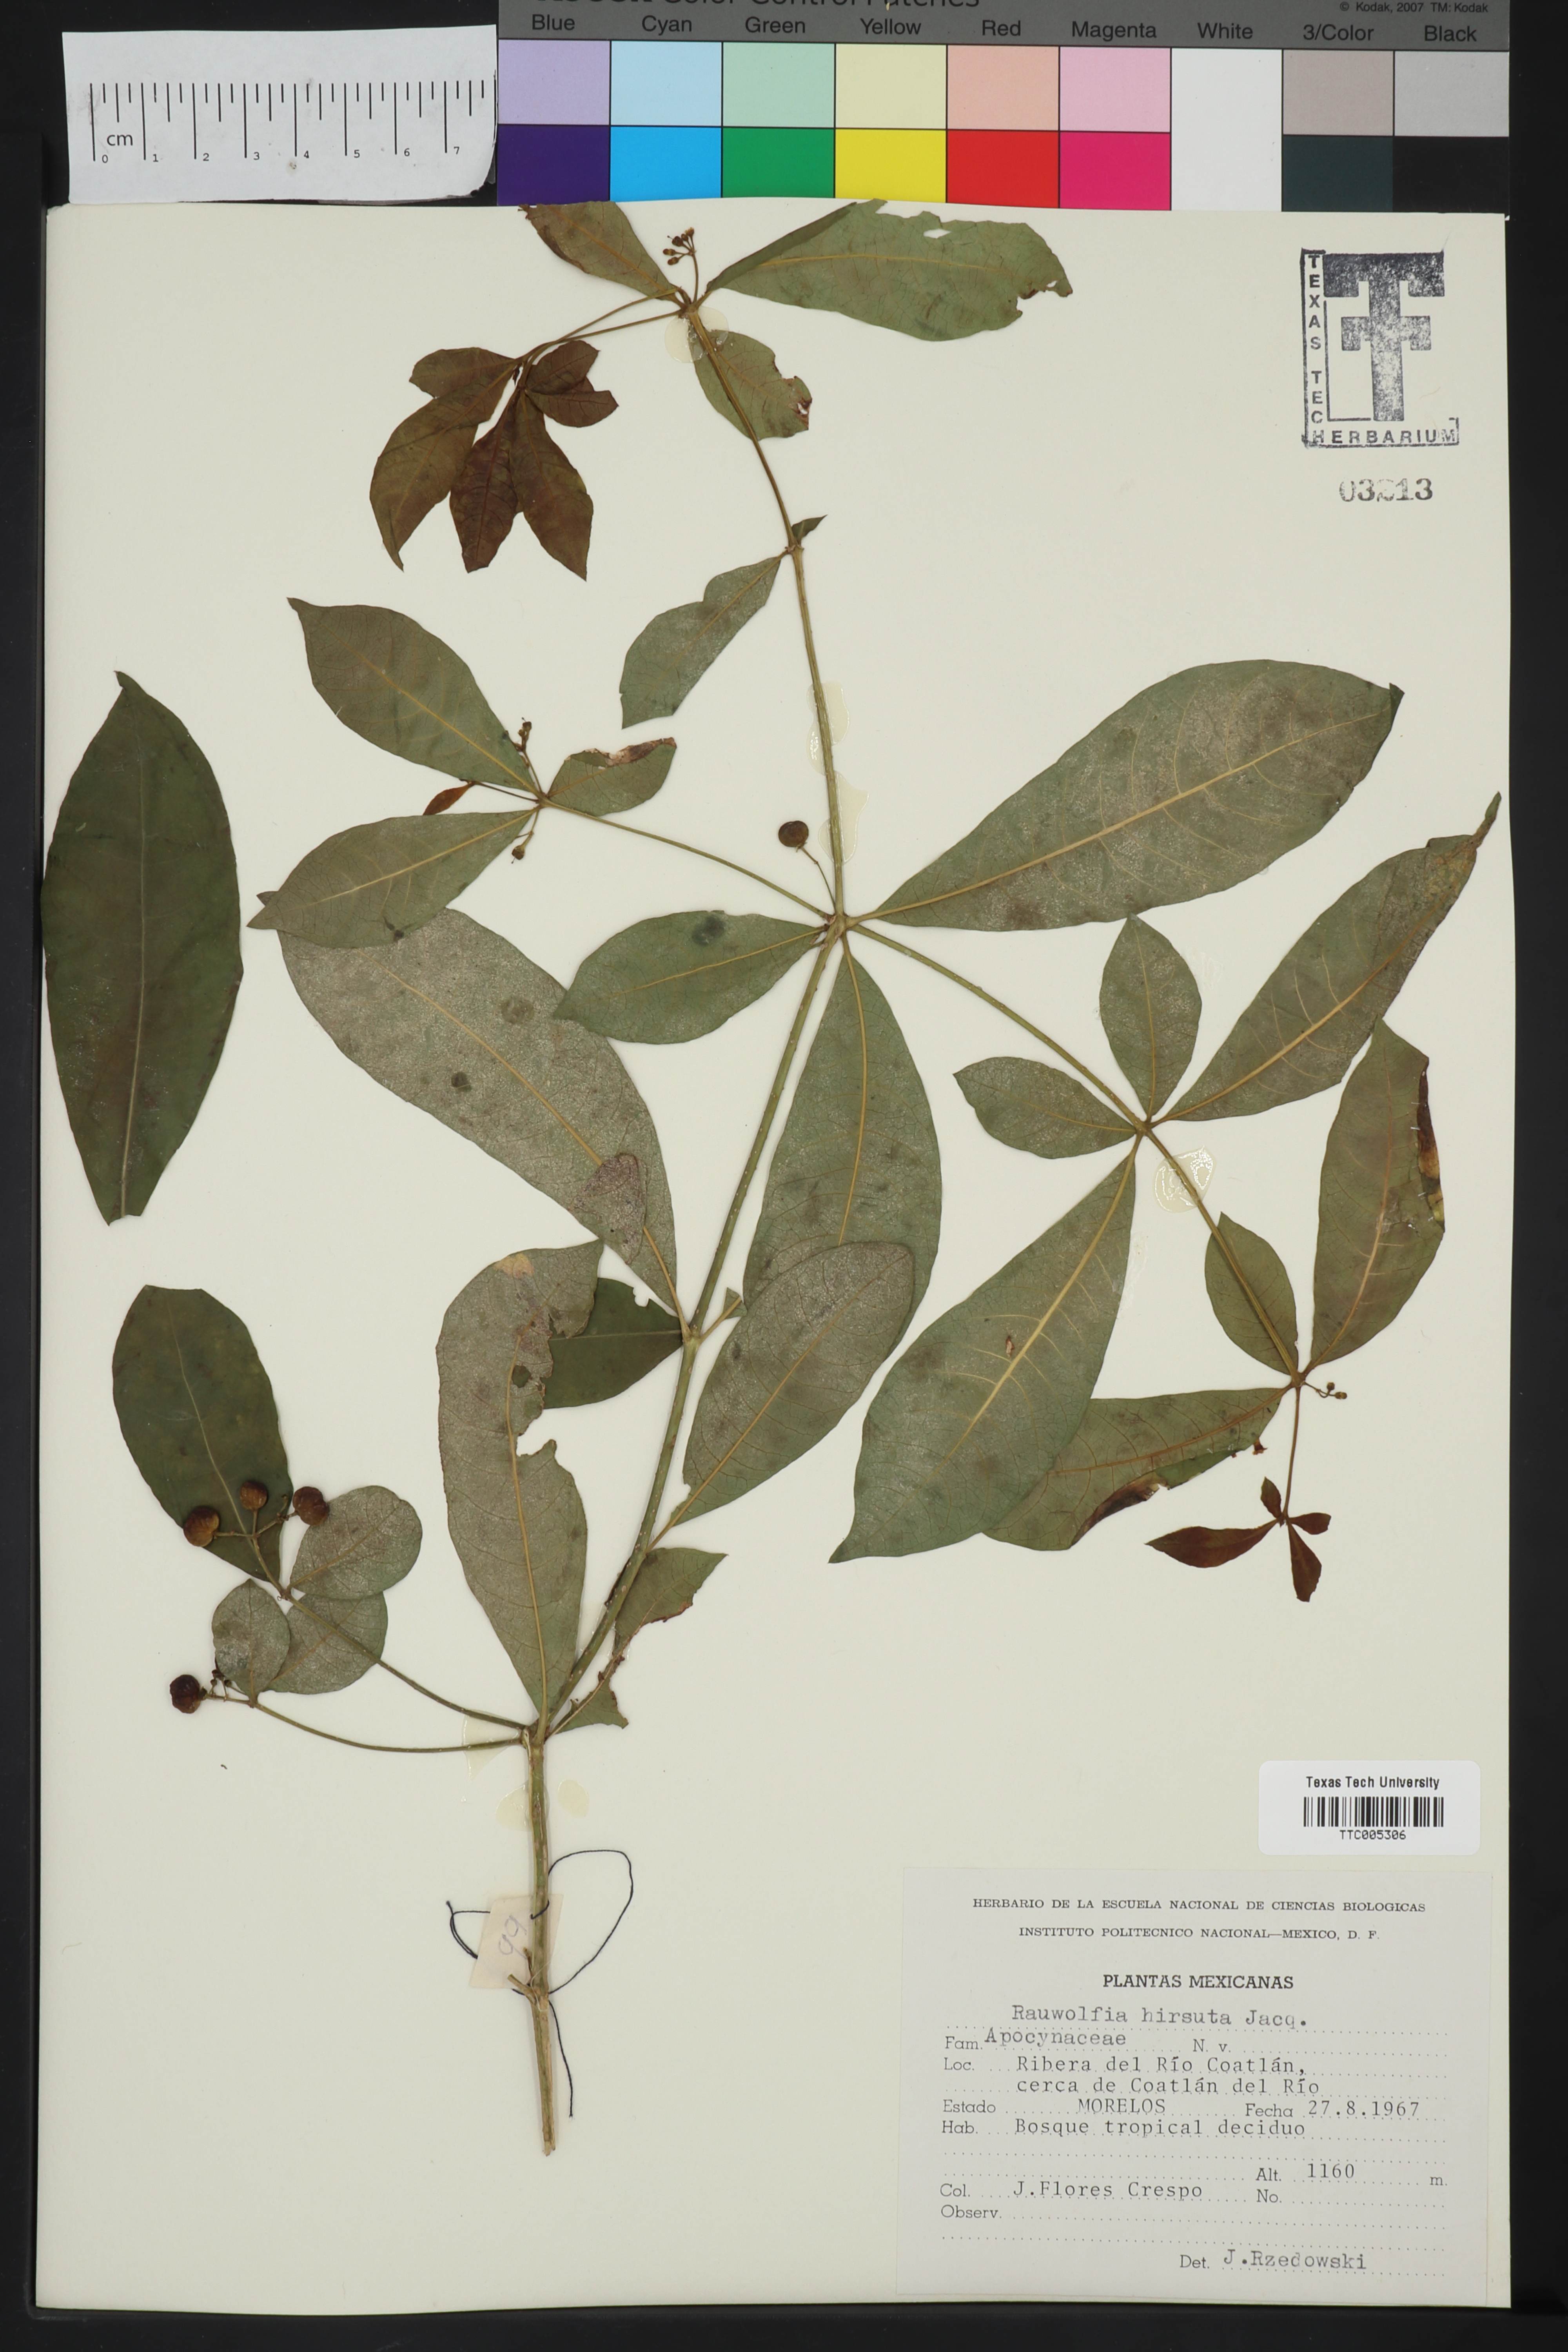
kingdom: Plantae
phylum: Tracheophyta
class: Magnoliopsida
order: Gentianales
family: Apocynaceae
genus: Rauvolfia
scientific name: Rauvolfia tetraphylla
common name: Four-leaf devil-pepper
